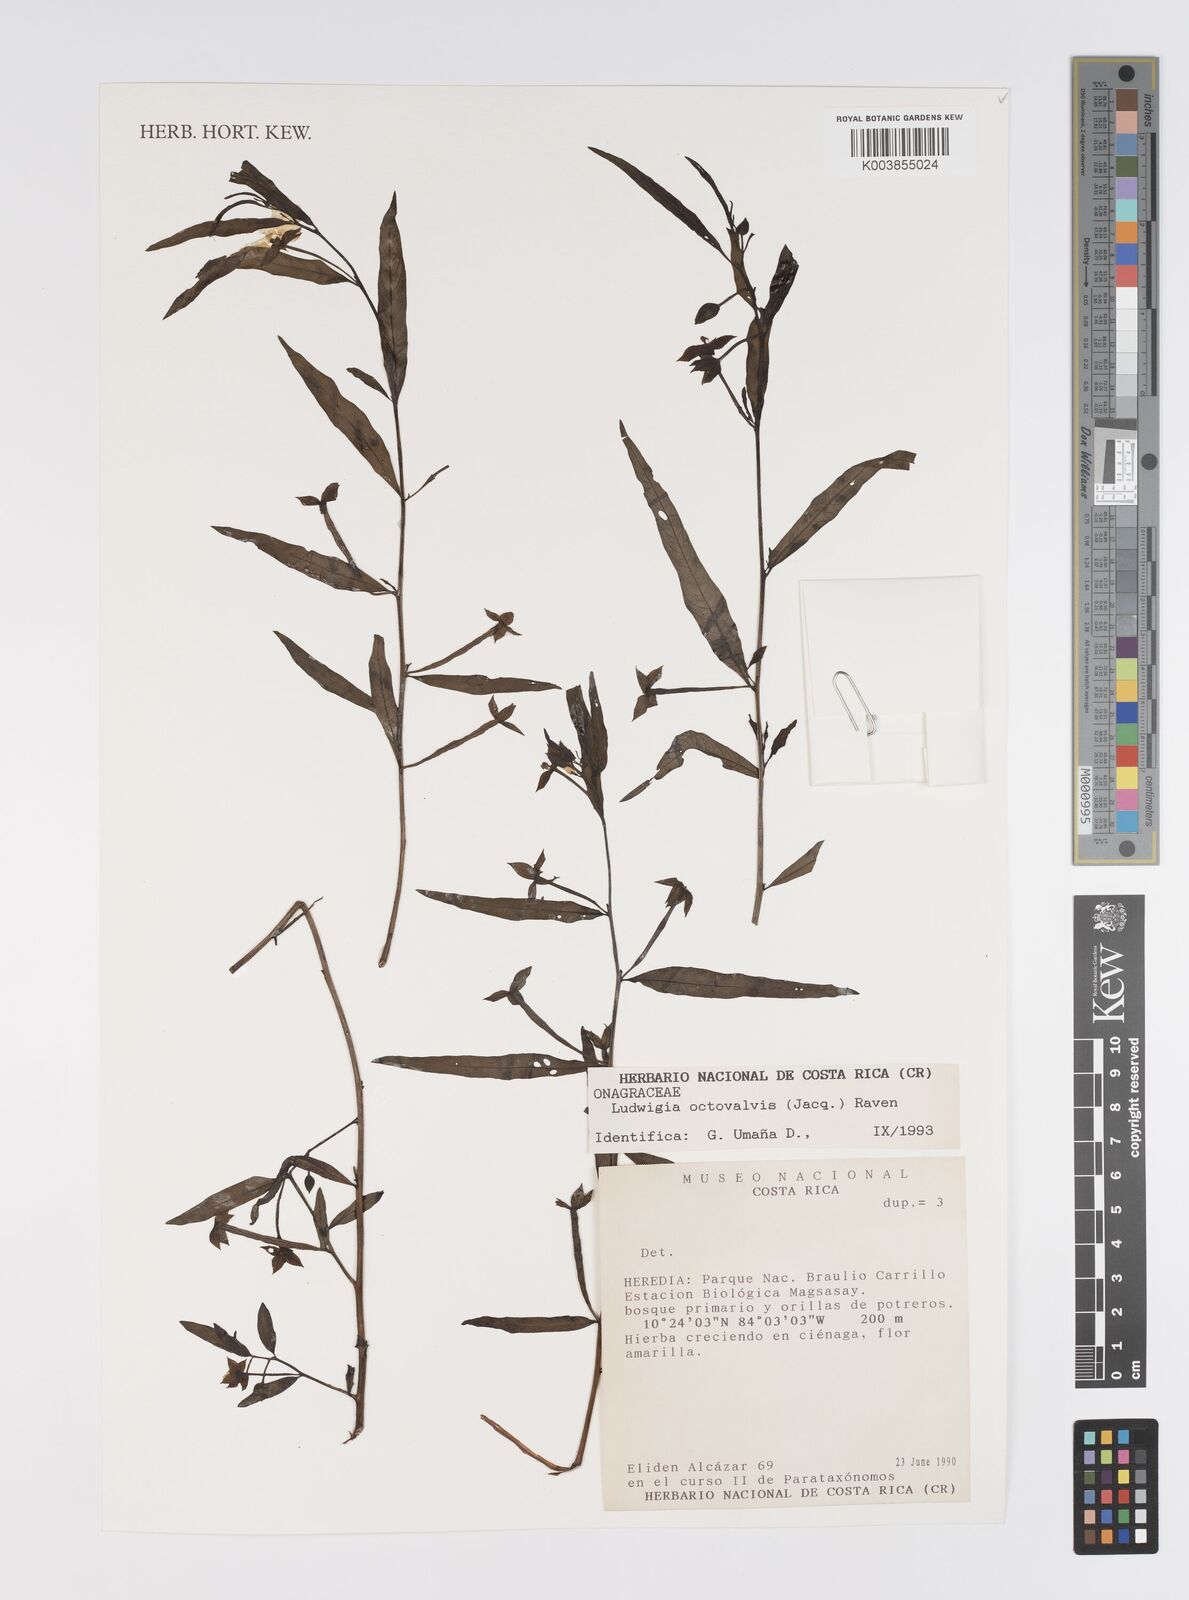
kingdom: Plantae
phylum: Tracheophyta
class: Magnoliopsida
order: Myrtales
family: Onagraceae
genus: Ludwigia
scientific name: Ludwigia octovalvis
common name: Water-primrose
